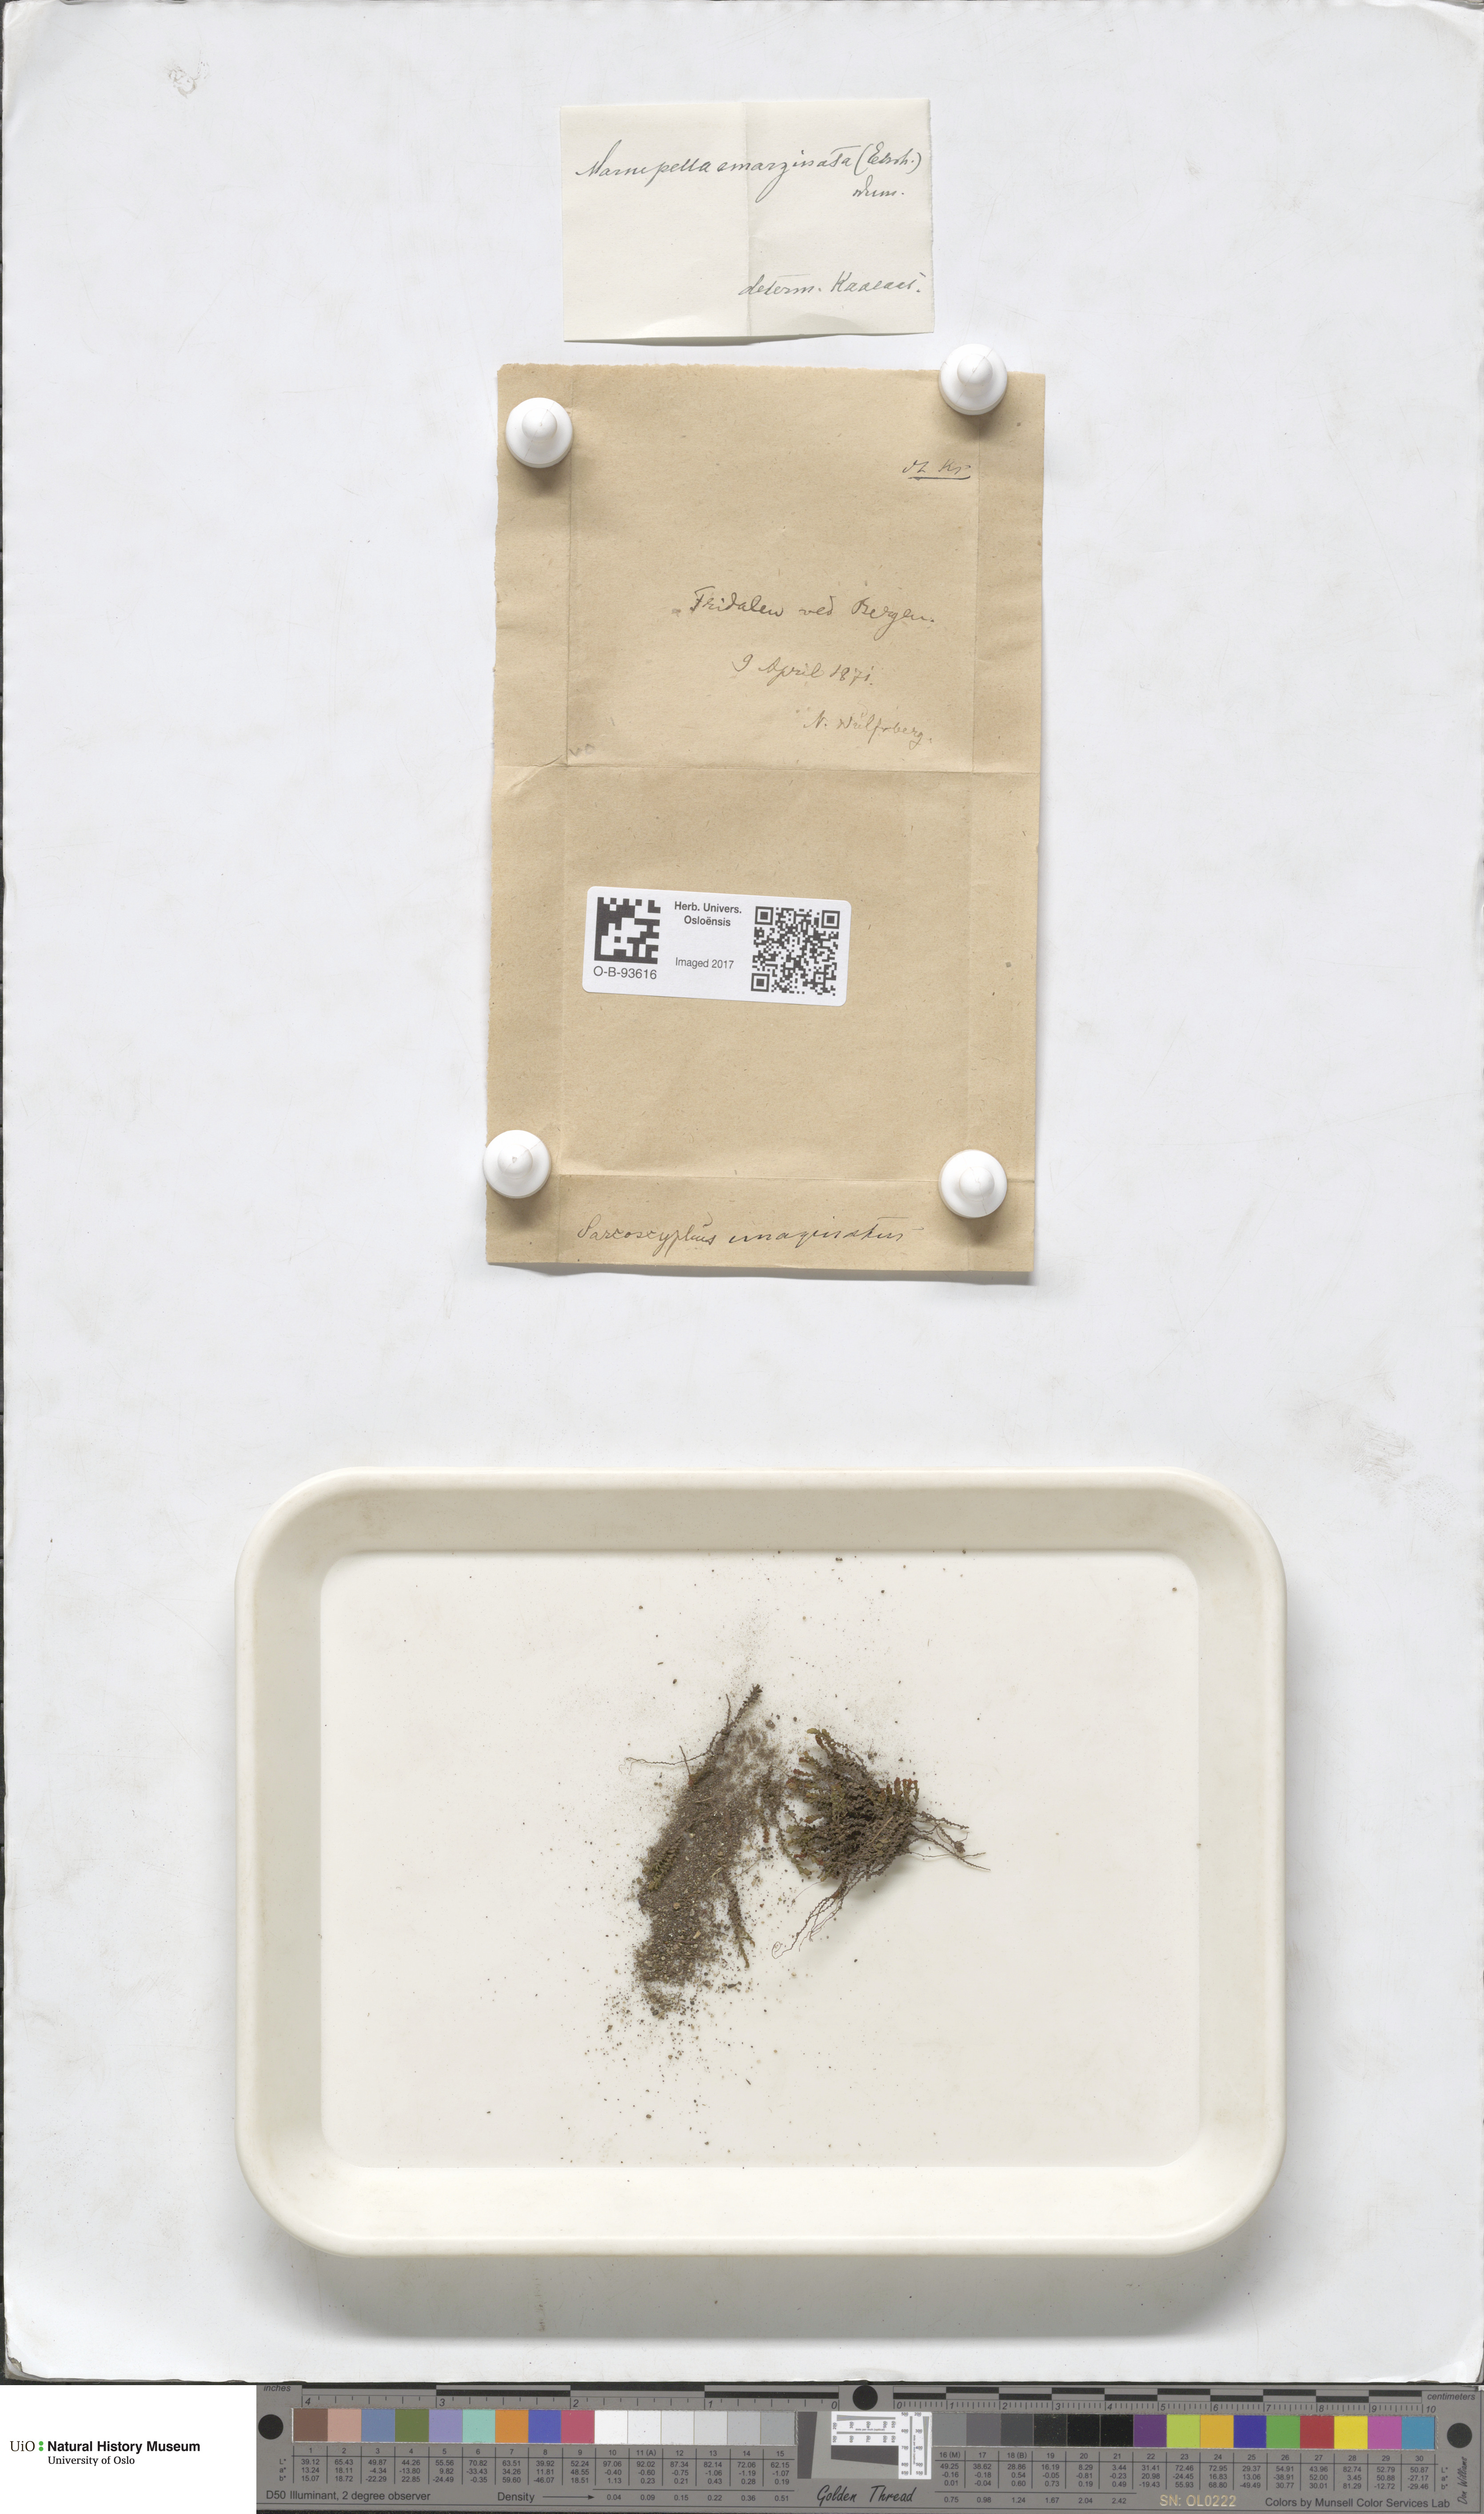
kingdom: Plantae
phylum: Marchantiophyta
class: Jungermanniopsida
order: Jungermanniales
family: Gymnomitriaceae
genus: Marsupella
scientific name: Marsupella emarginata
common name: Notched rustwort
